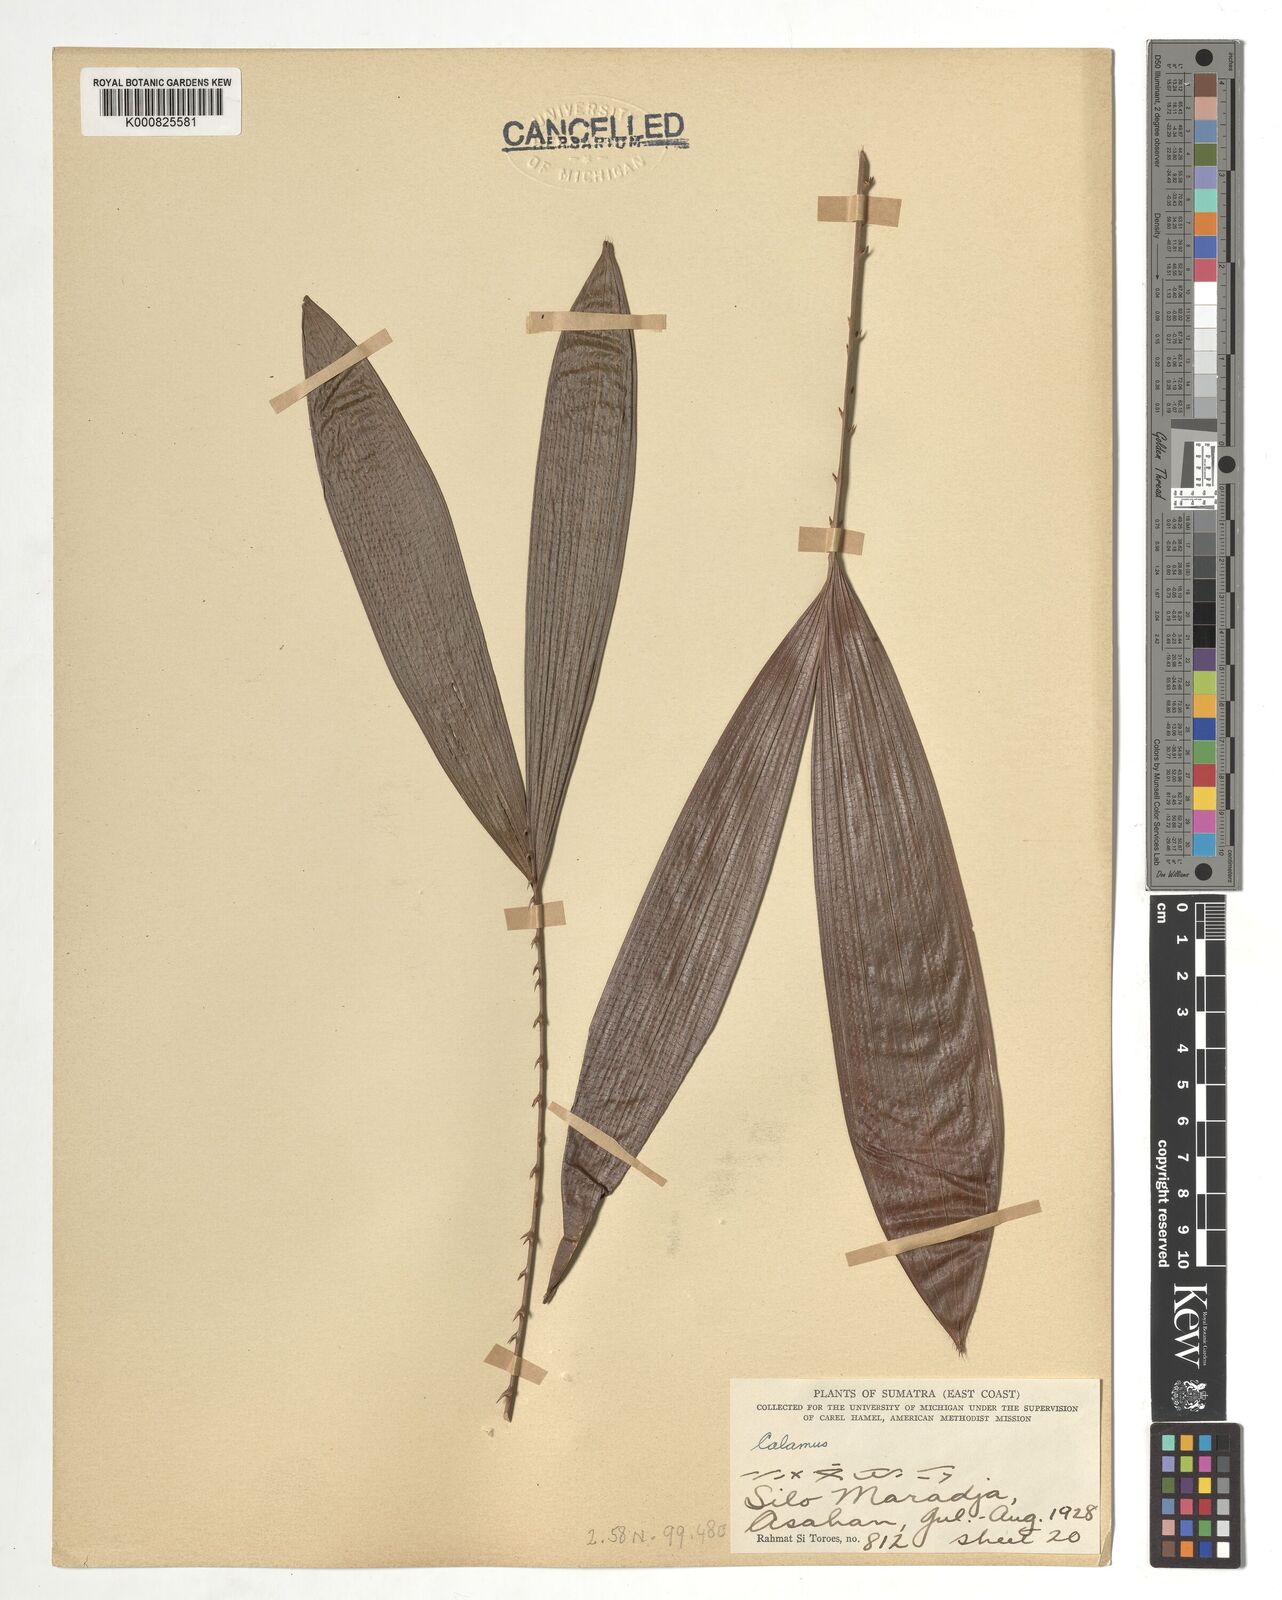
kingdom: Plantae
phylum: Tracheophyta
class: Liliopsida
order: Arecales
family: Arecaceae
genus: Calamus
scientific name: Calamus
